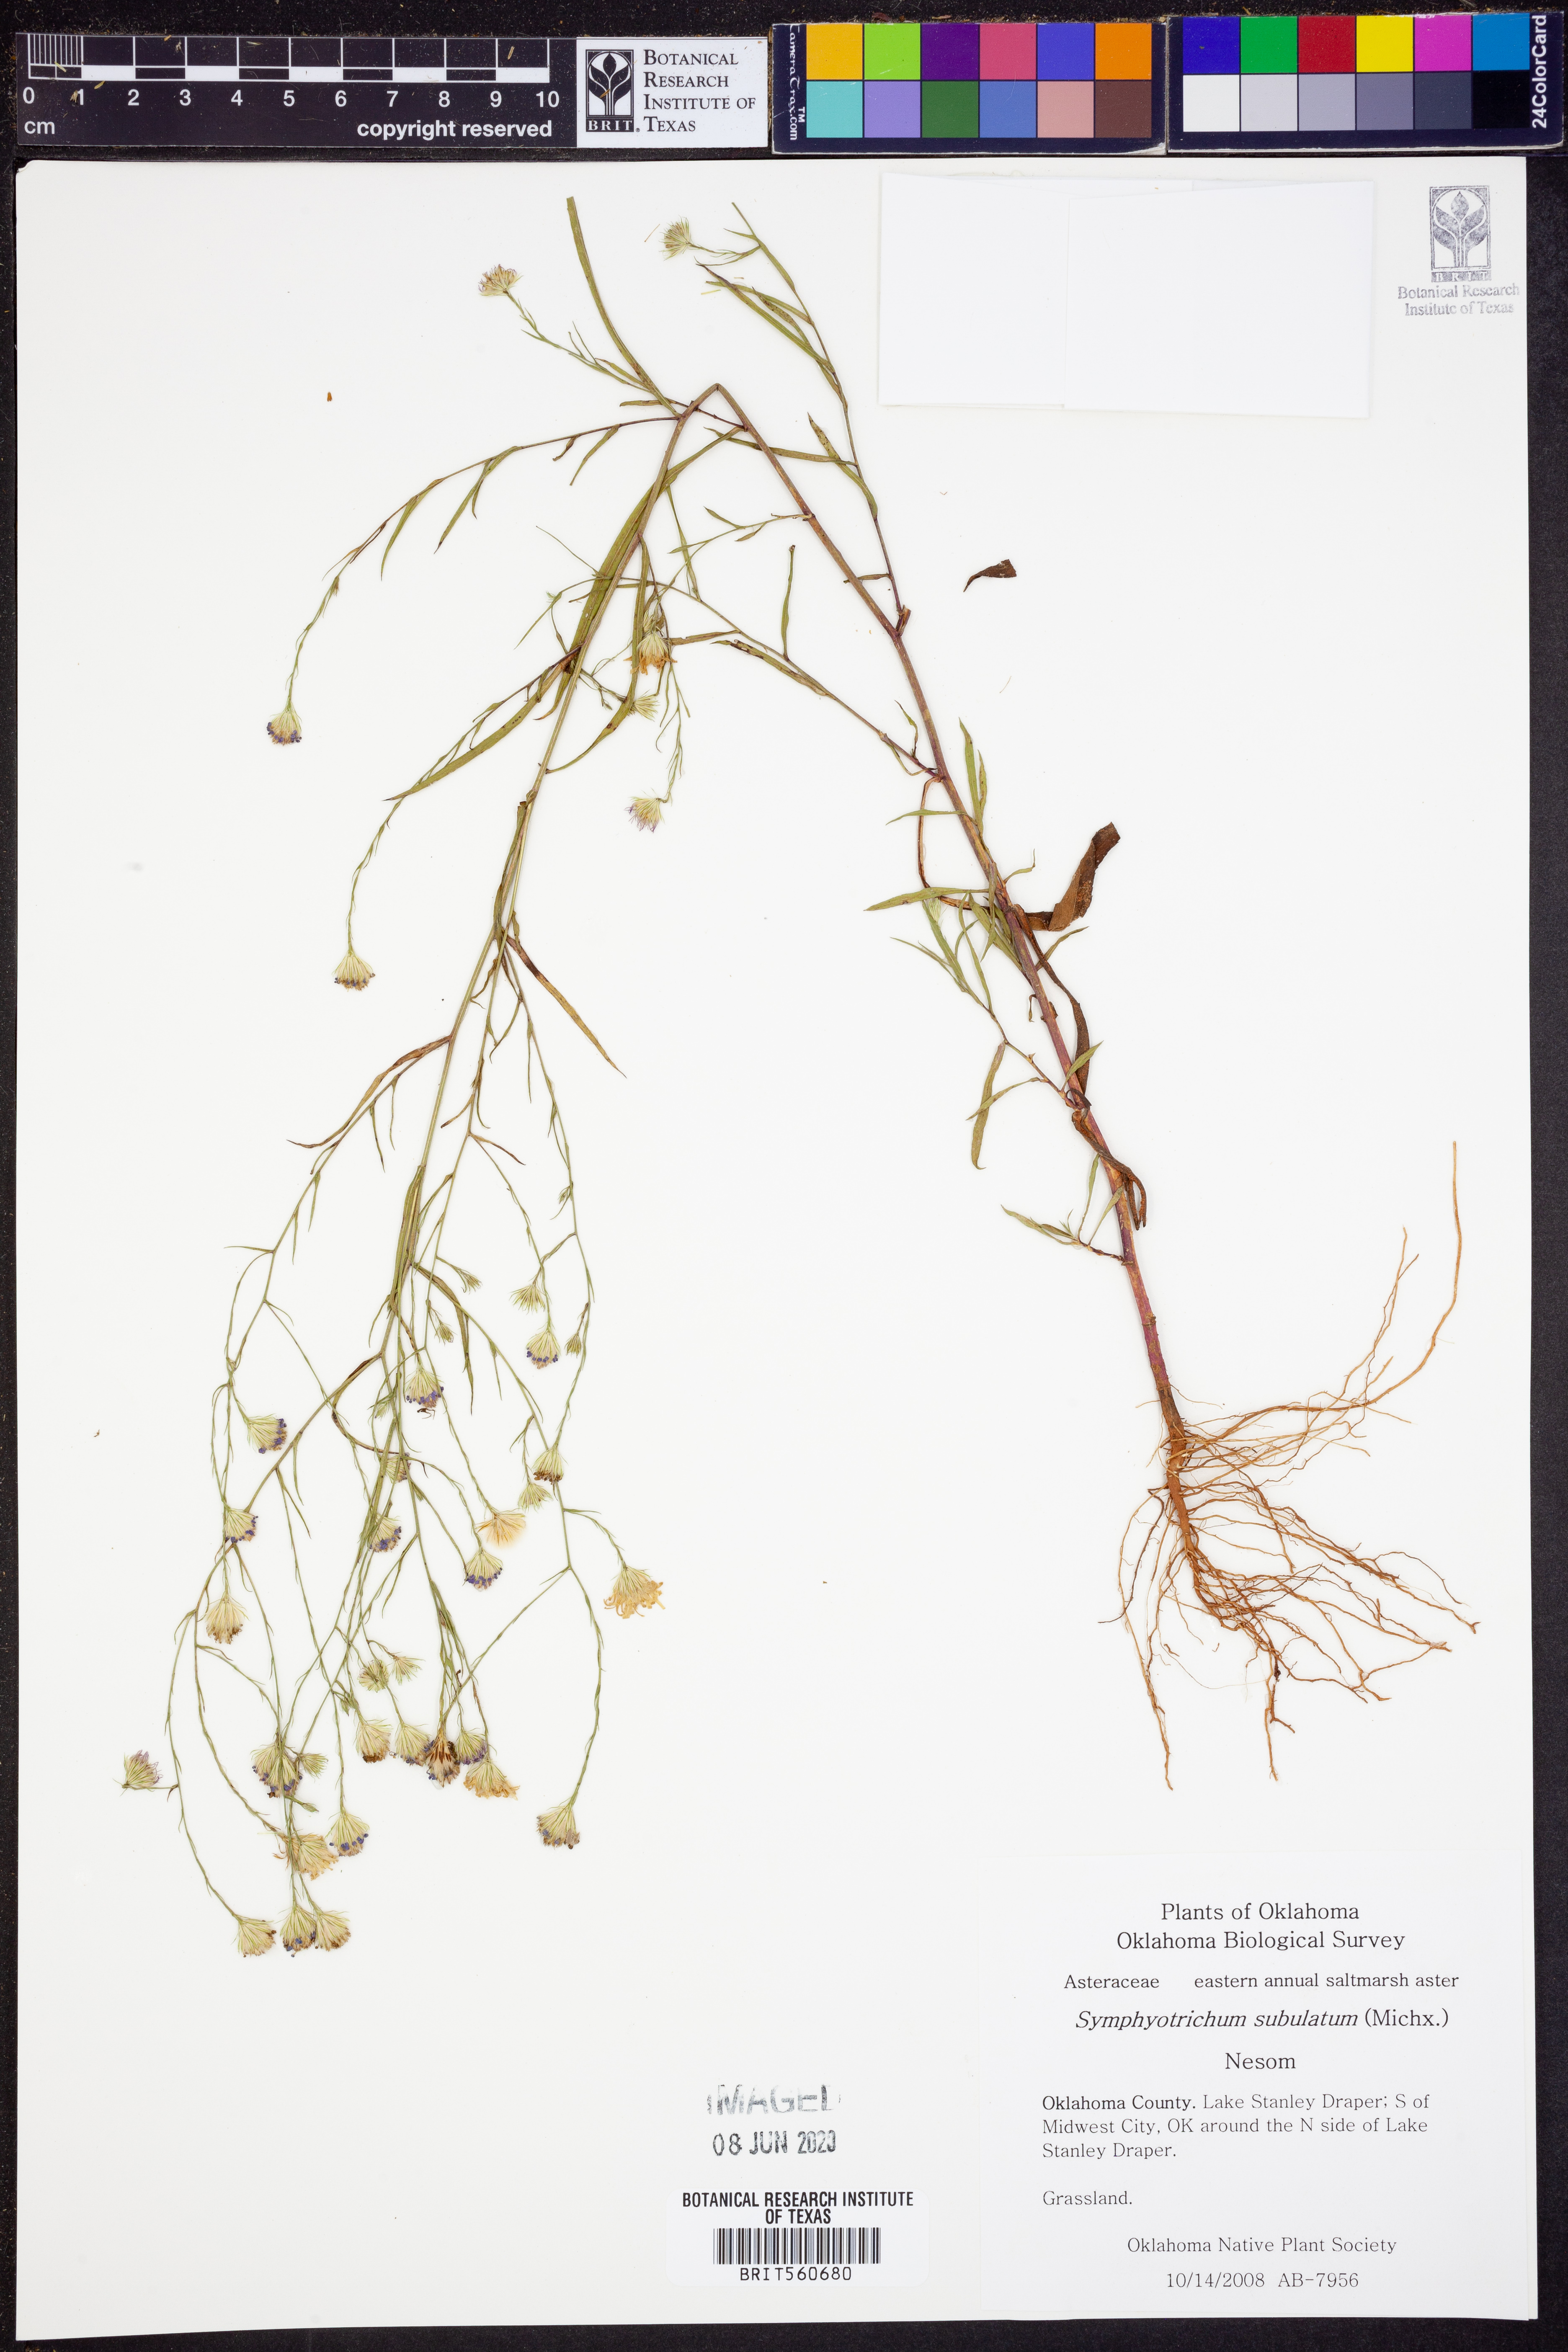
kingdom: Plantae
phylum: Tracheophyta
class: Magnoliopsida
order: Asterales
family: Asteraceae
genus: Symphyotrichum
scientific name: Symphyotrichum subulatum
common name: Annual saltmarsh aster
